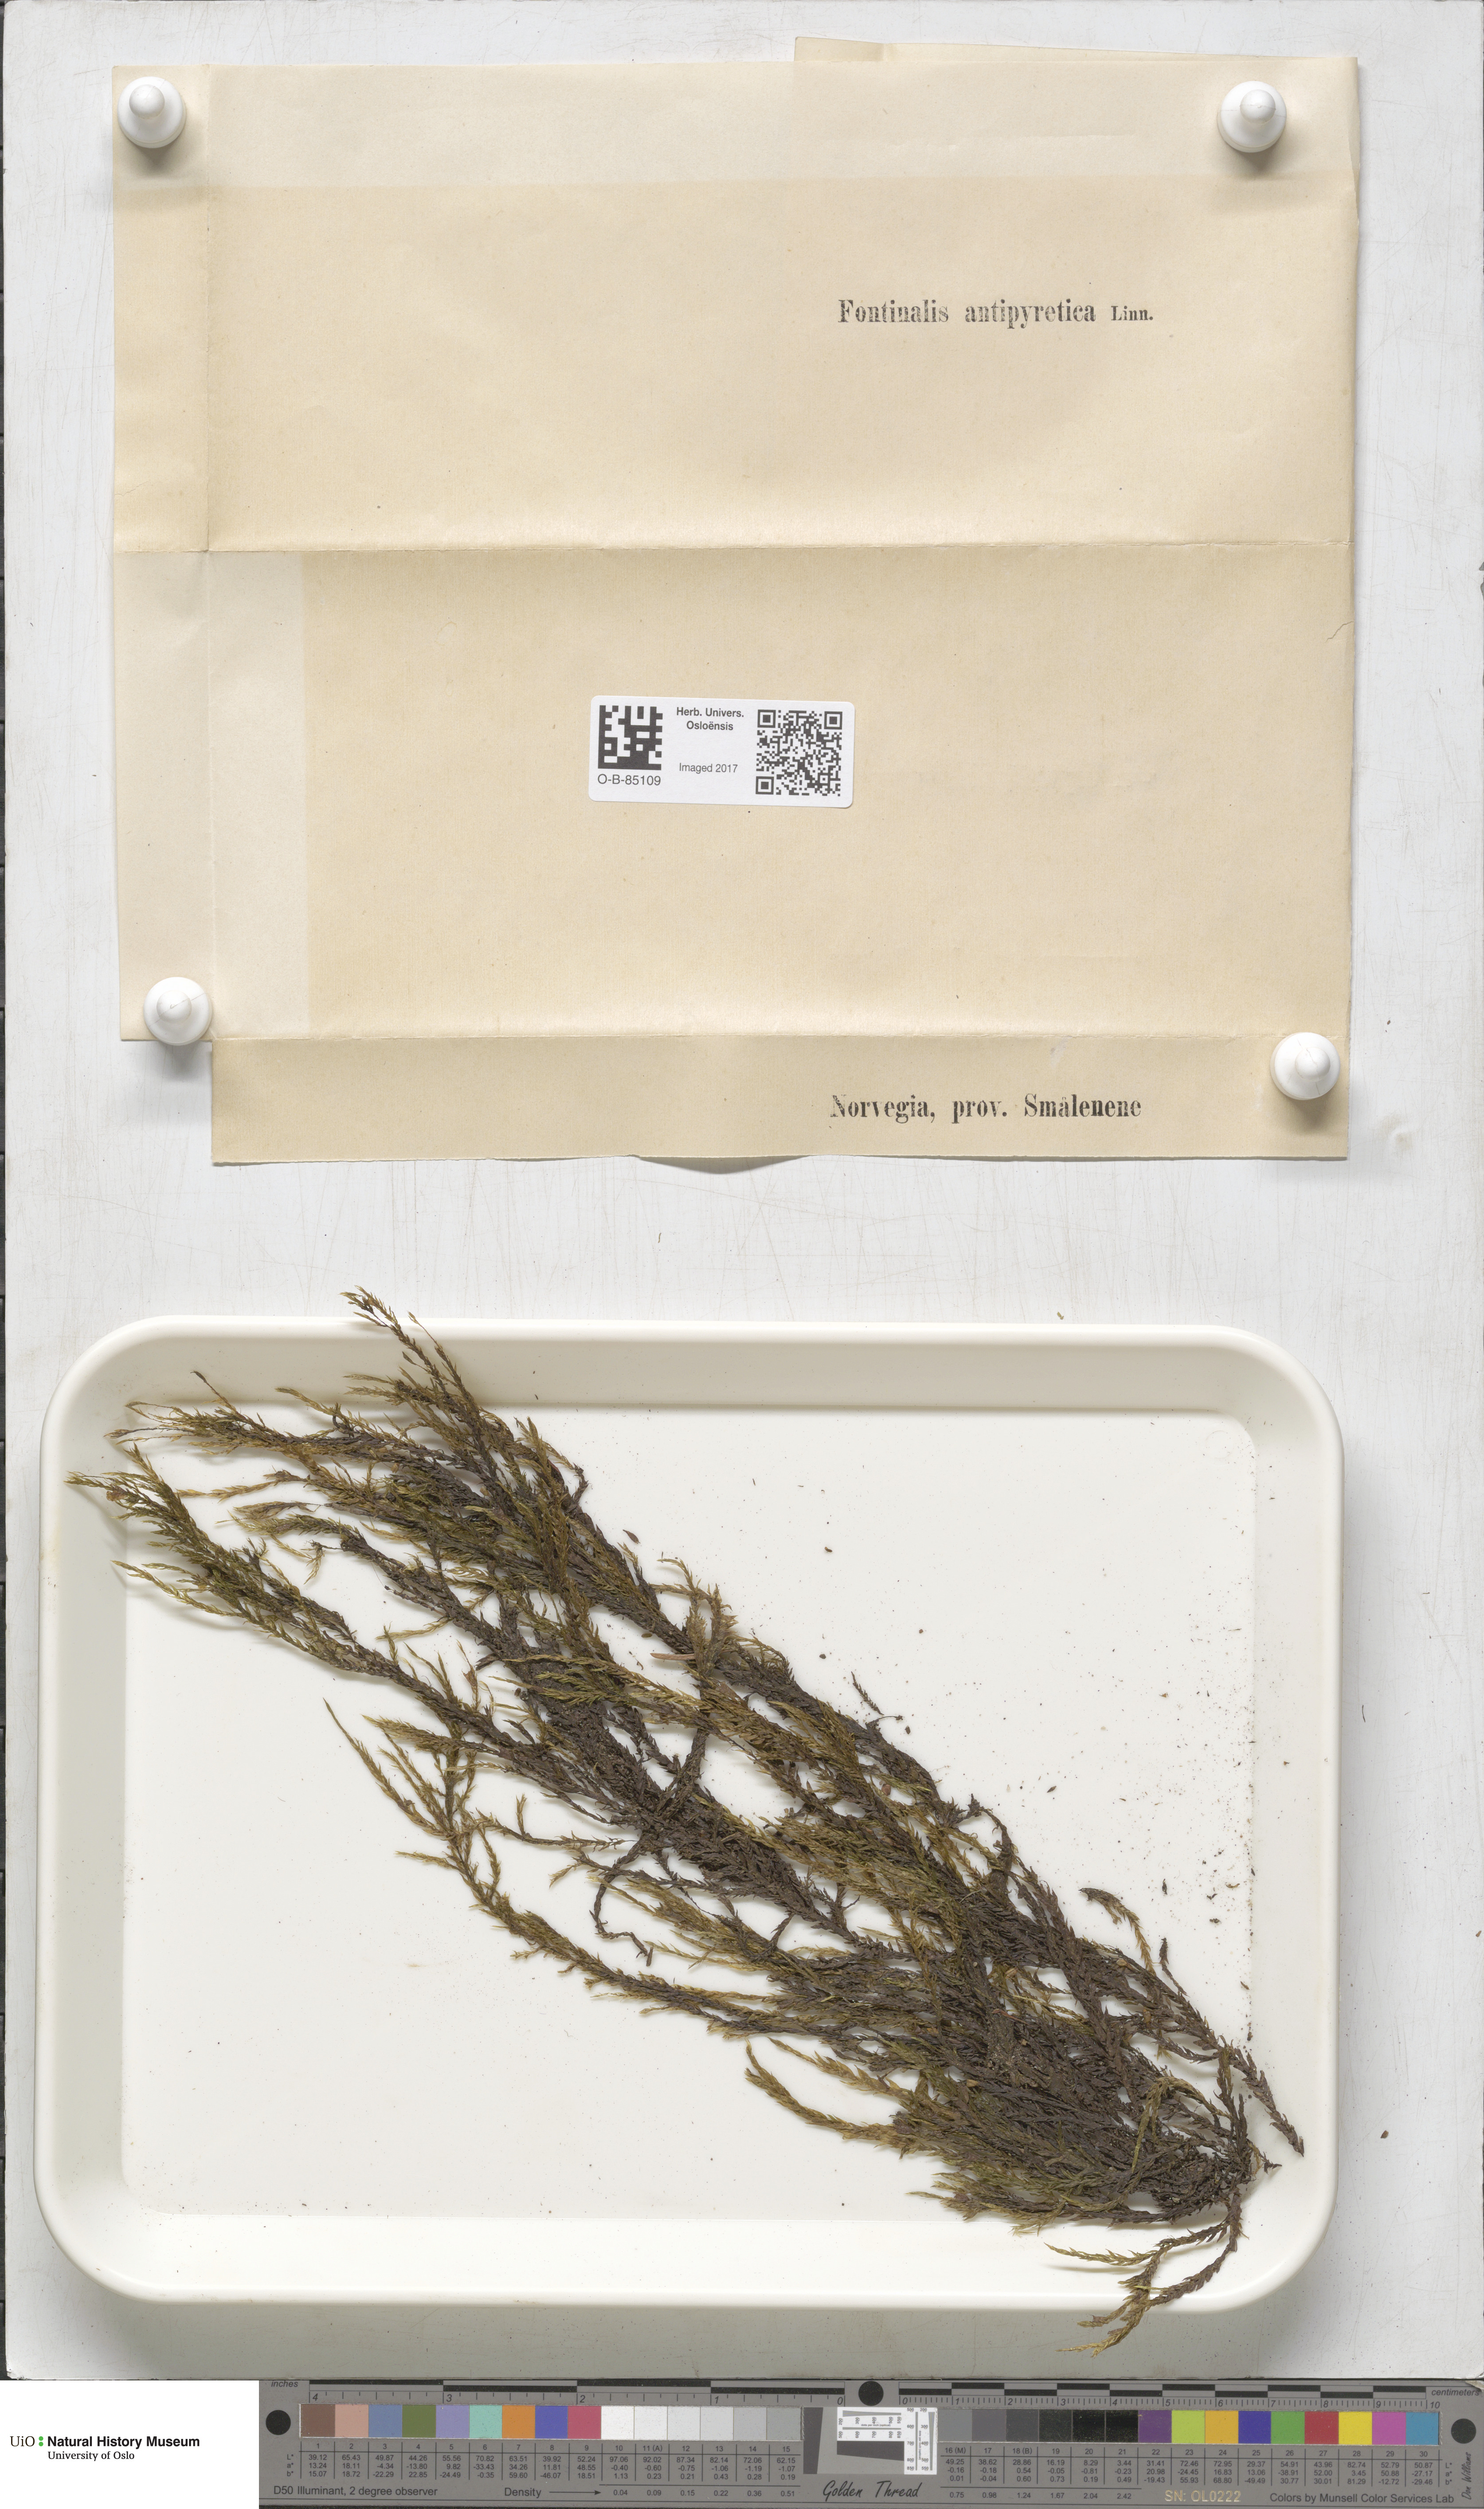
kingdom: Plantae
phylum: Bryophyta
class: Bryopsida
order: Hypnales
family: Fontinalaceae
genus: Fontinalis
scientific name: Fontinalis antipyretica
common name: Greater water-moss
